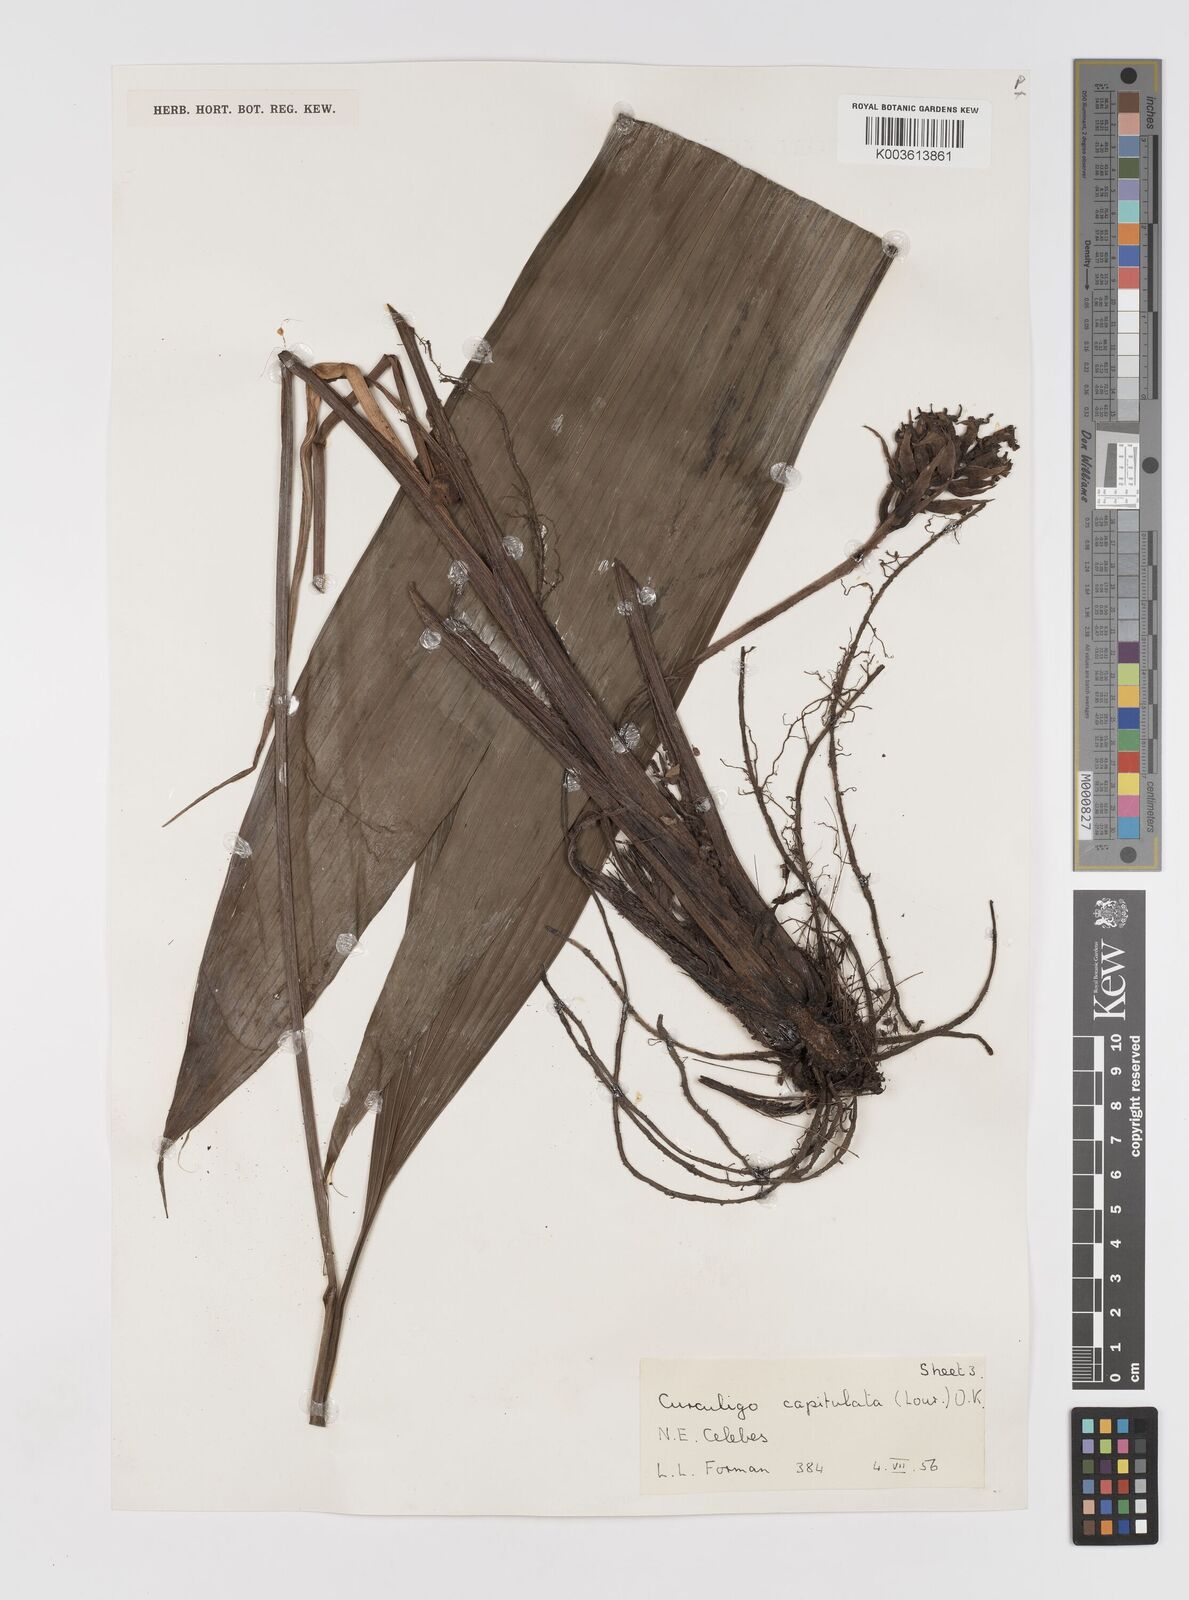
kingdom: Plantae
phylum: Tracheophyta
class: Liliopsida
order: Asparagales
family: Hypoxidaceae
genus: Curculigo
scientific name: Curculigo capitulata
